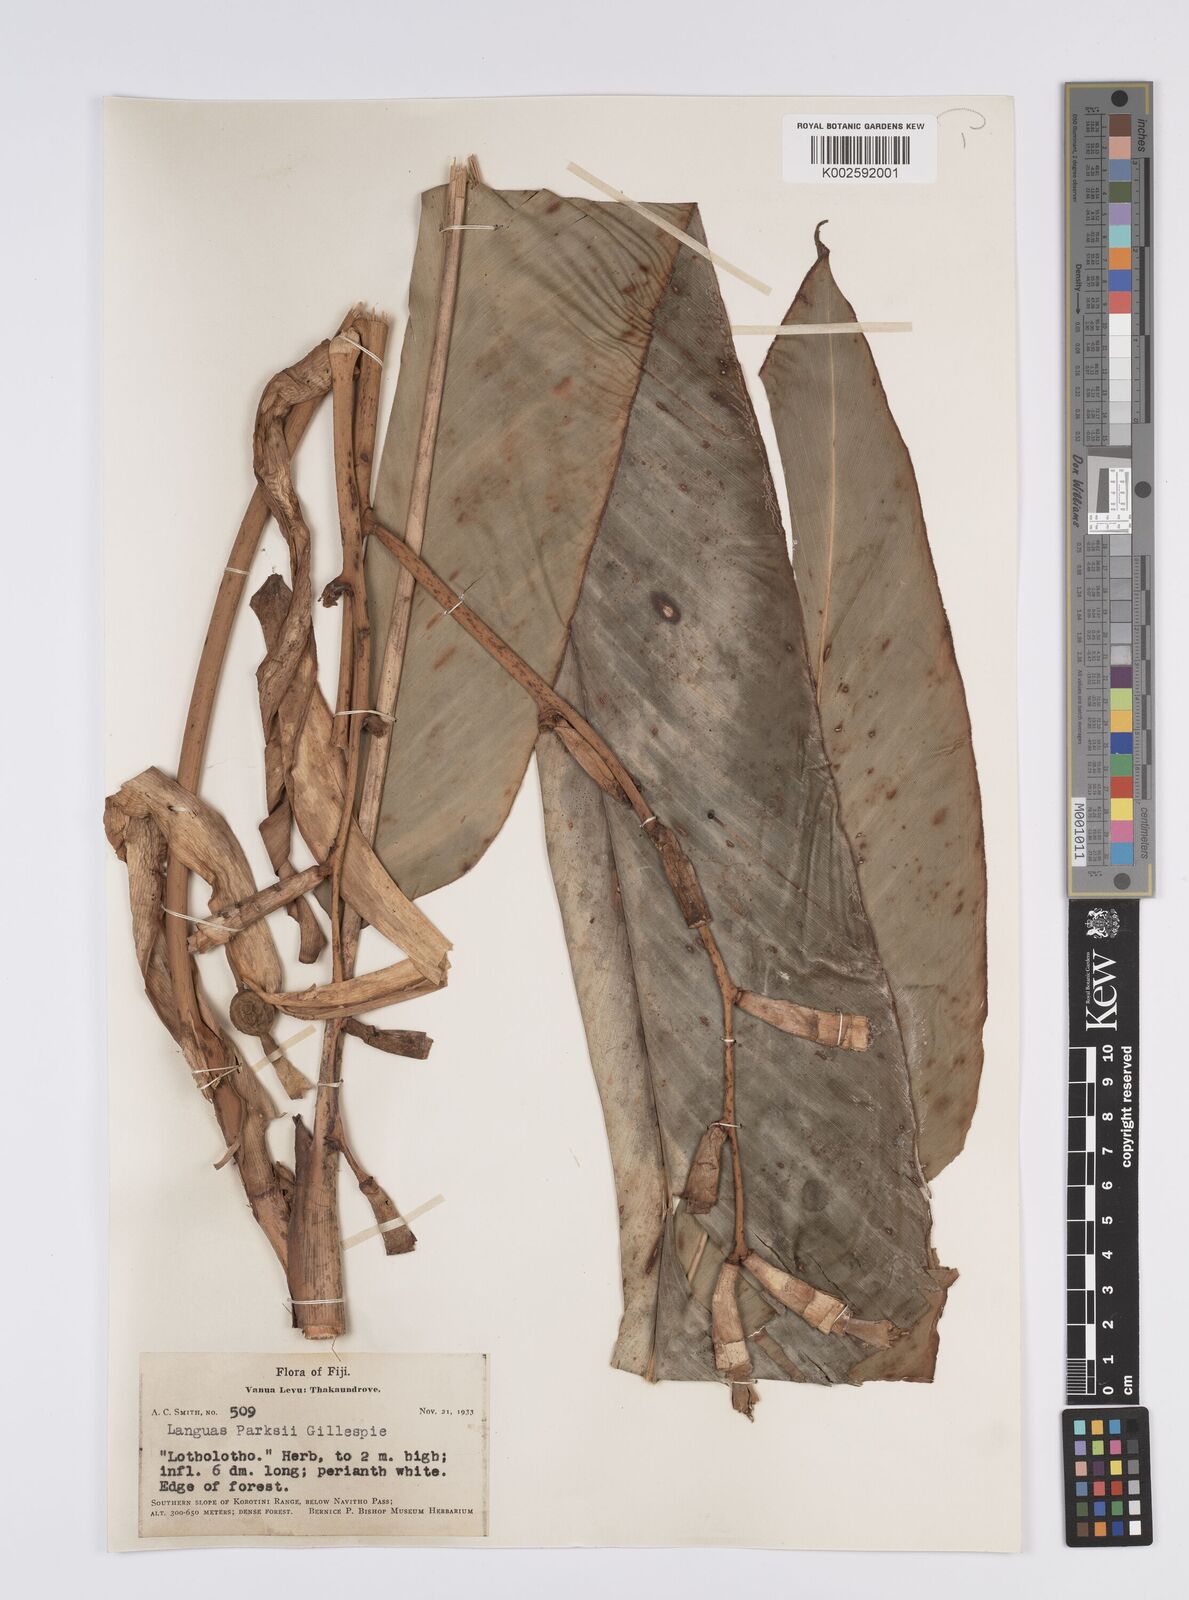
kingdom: Plantae
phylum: Tracheophyta
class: Liliopsida
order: Zingiberales
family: Zingiberaceae
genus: Alpinia
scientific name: Alpinia parksii
